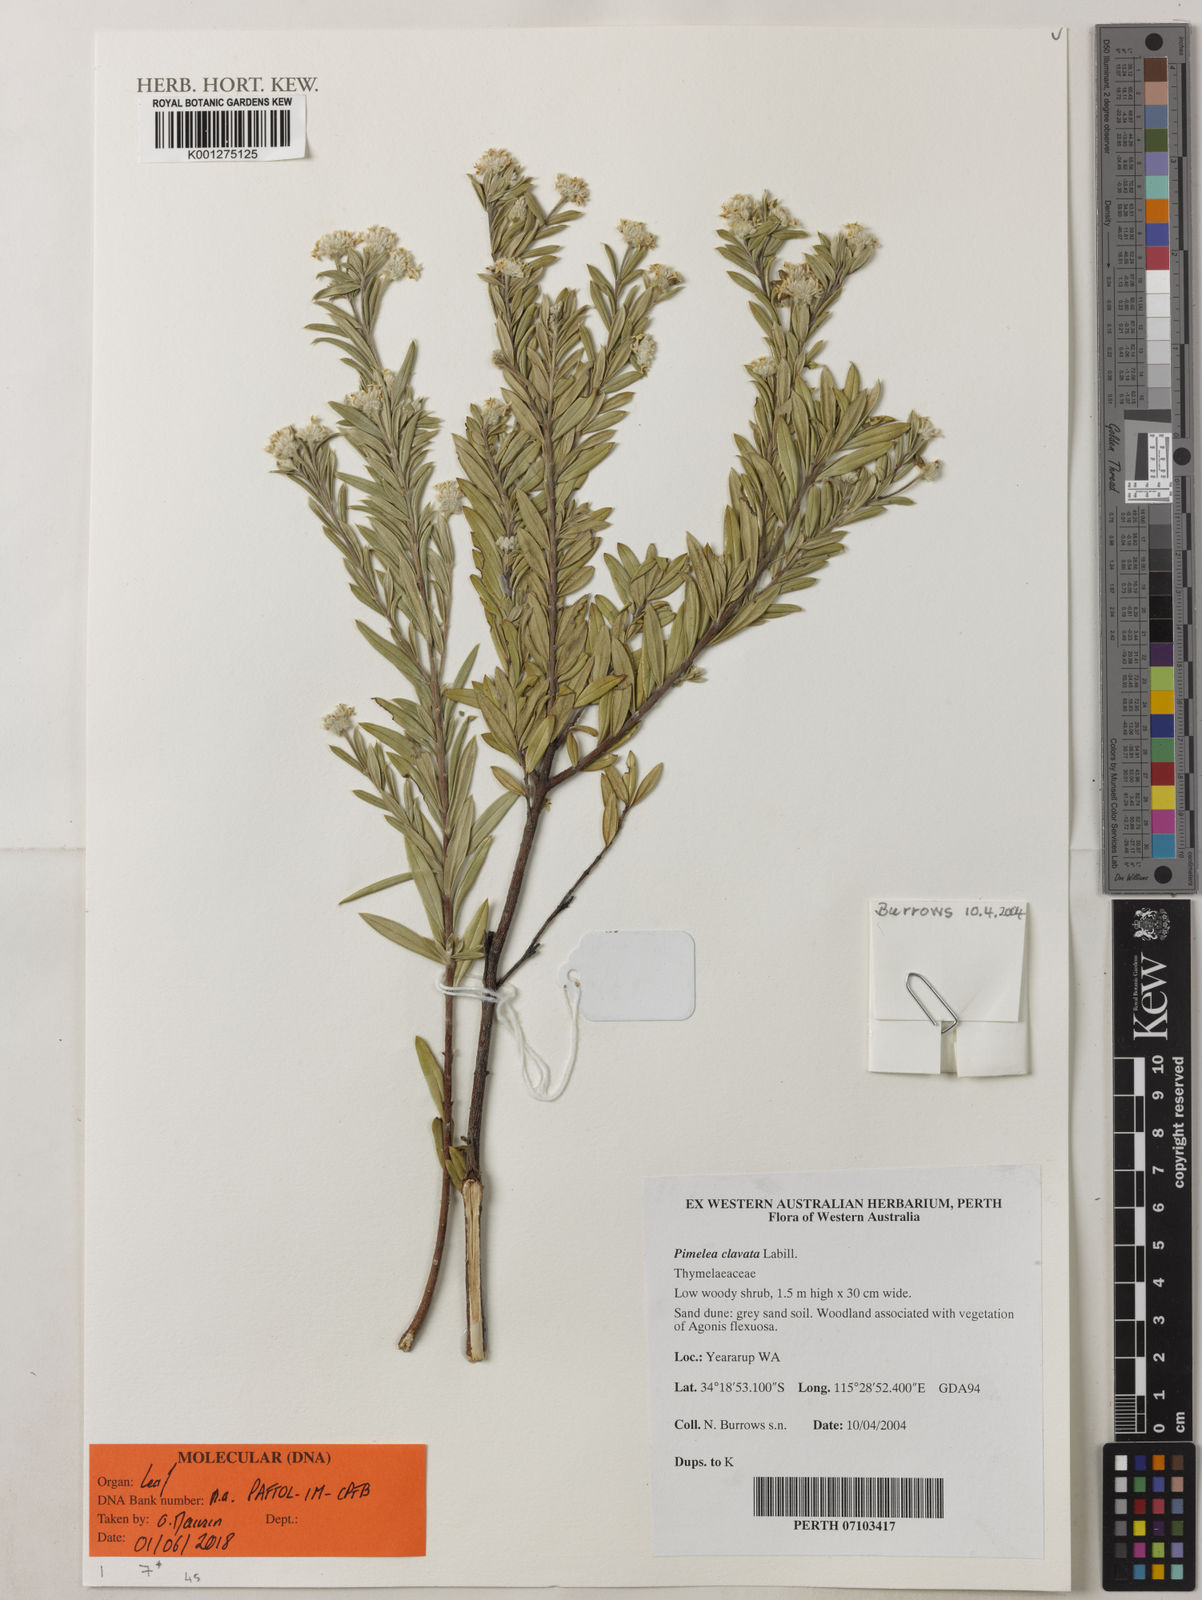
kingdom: Plantae
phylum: Tracheophyta
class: Magnoliopsida
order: Malvales
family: Thymelaeaceae
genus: Pimelea
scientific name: Pimelea clavata
